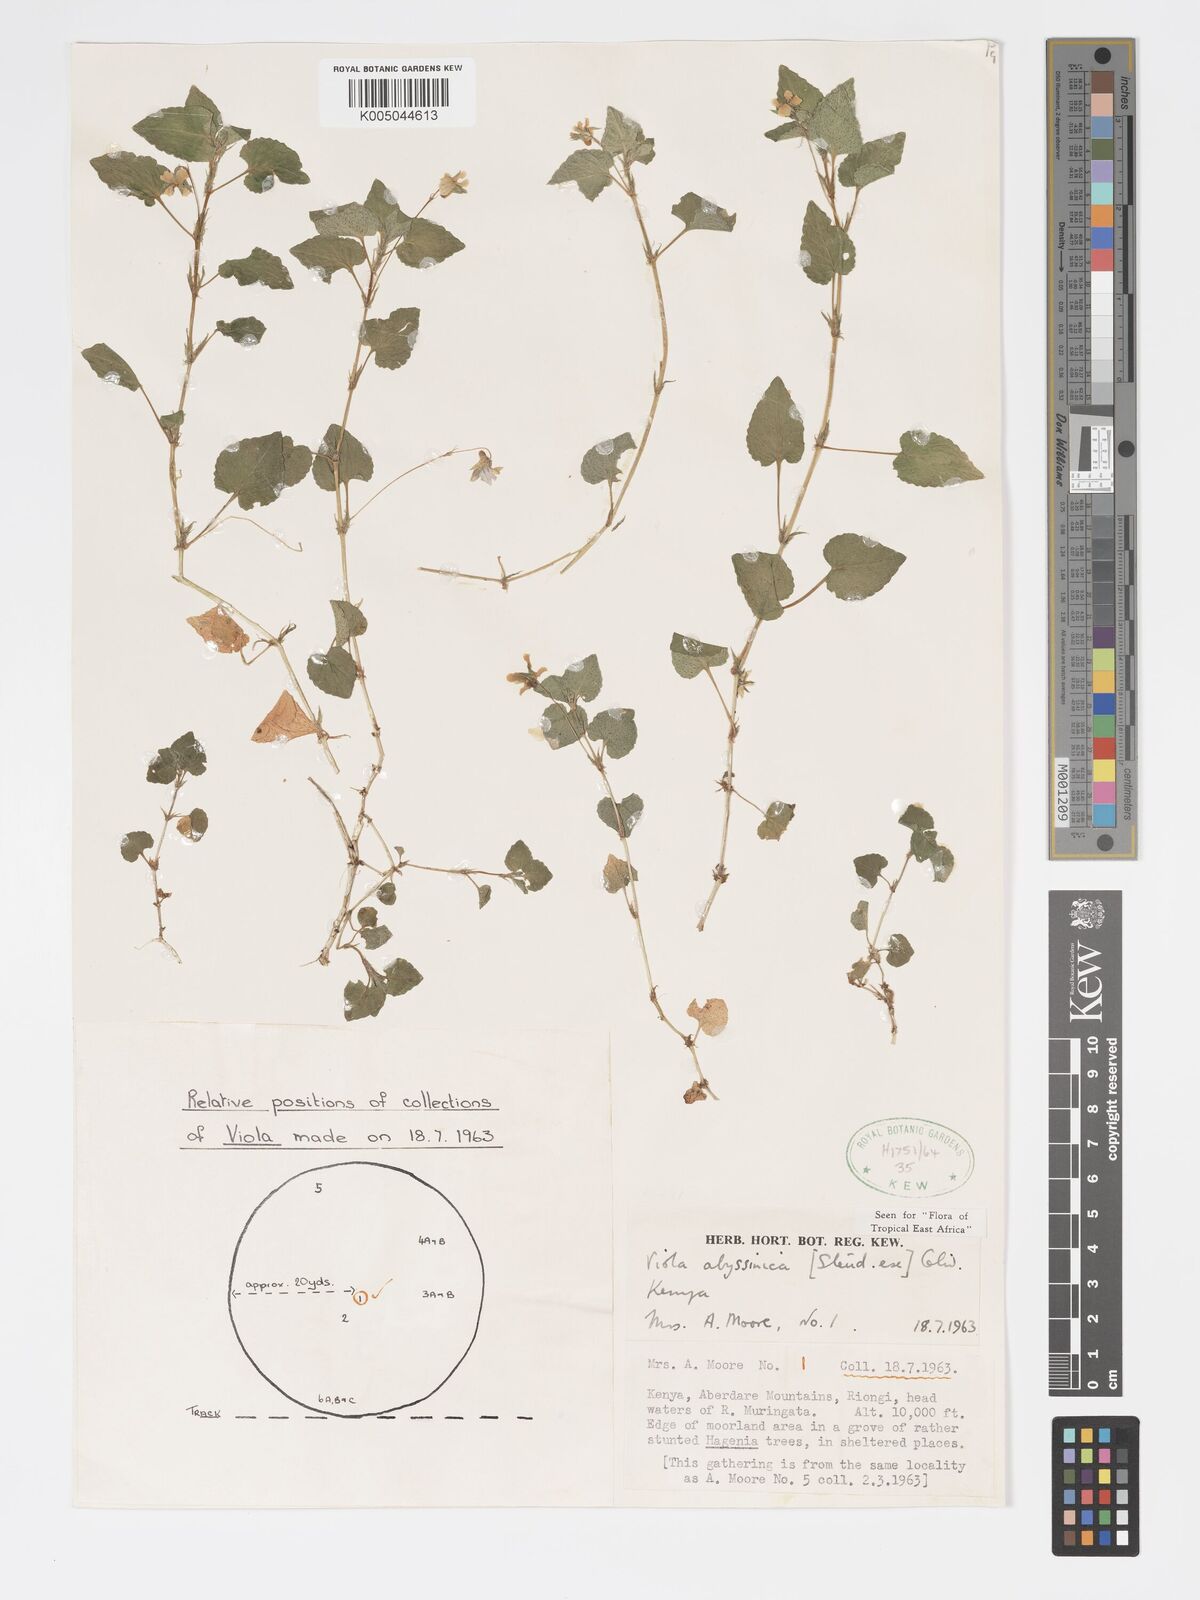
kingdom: Plantae
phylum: Tracheophyta
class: Magnoliopsida
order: Malpighiales
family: Violaceae
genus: Viola
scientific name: Viola abyssinica
